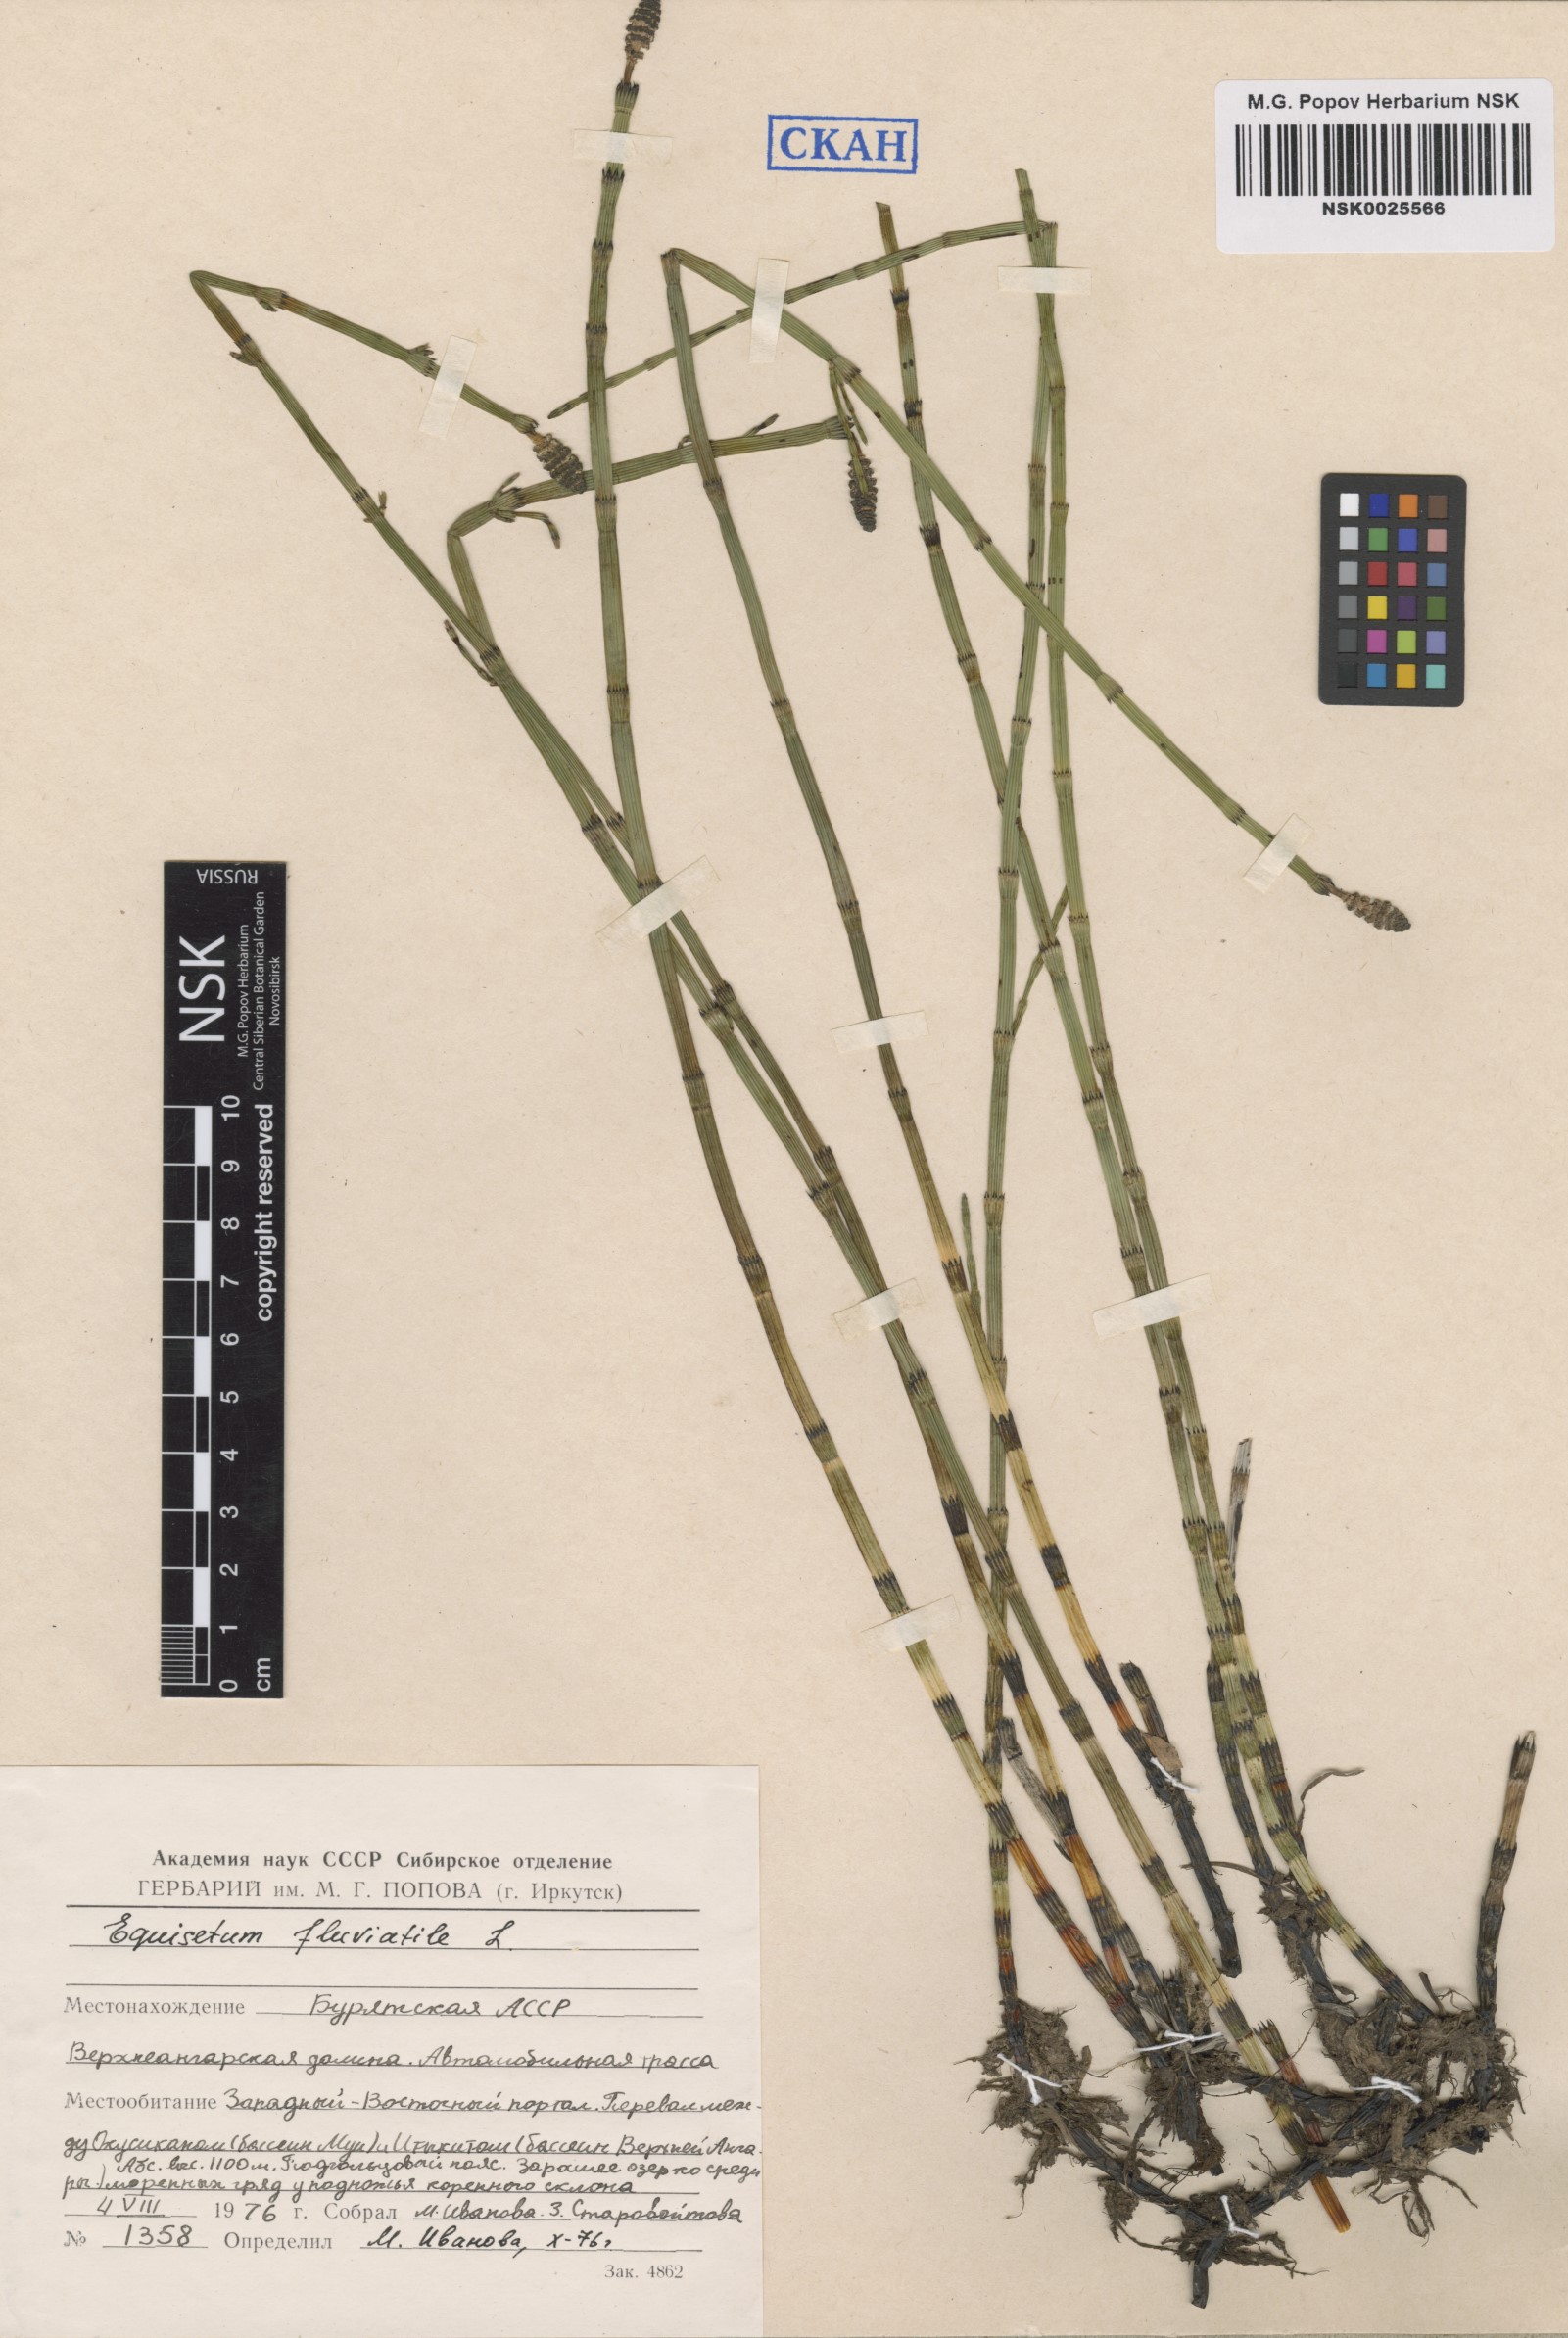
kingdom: Plantae
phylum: Tracheophyta
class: Polypodiopsida
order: Equisetales
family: Equisetaceae
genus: Equisetum
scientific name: Equisetum fluviatile
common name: Water horsetail
